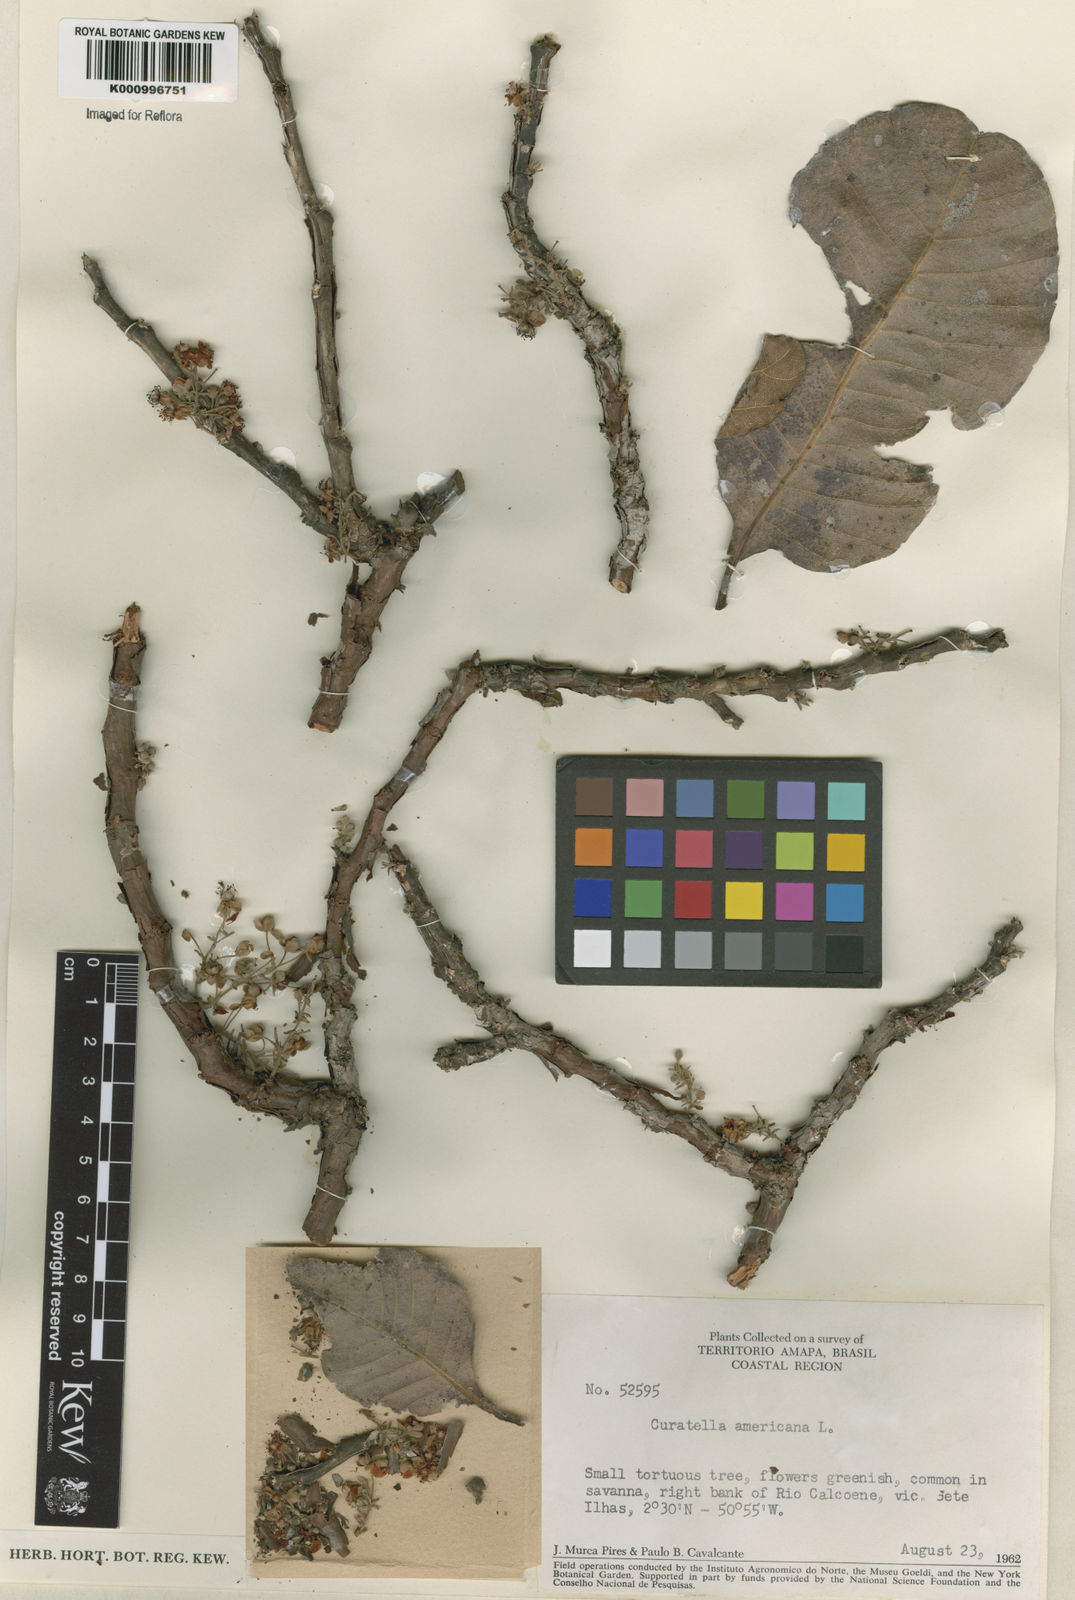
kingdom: Plantae
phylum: Tracheophyta
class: Magnoliopsida
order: Dilleniales
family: Dilleniaceae
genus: Curatella
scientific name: Curatella americana
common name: Sandpaper tree
